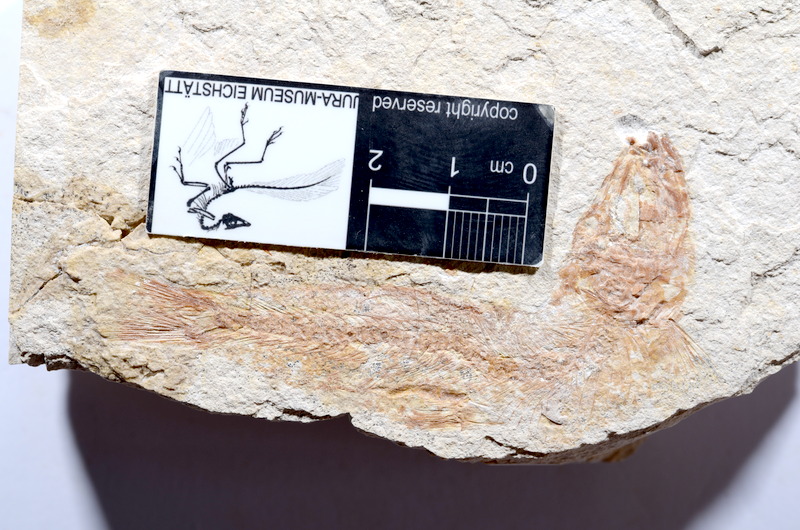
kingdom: Animalia
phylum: Chordata
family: Ascalaboidae
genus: Tharsis
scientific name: Tharsis dubius
